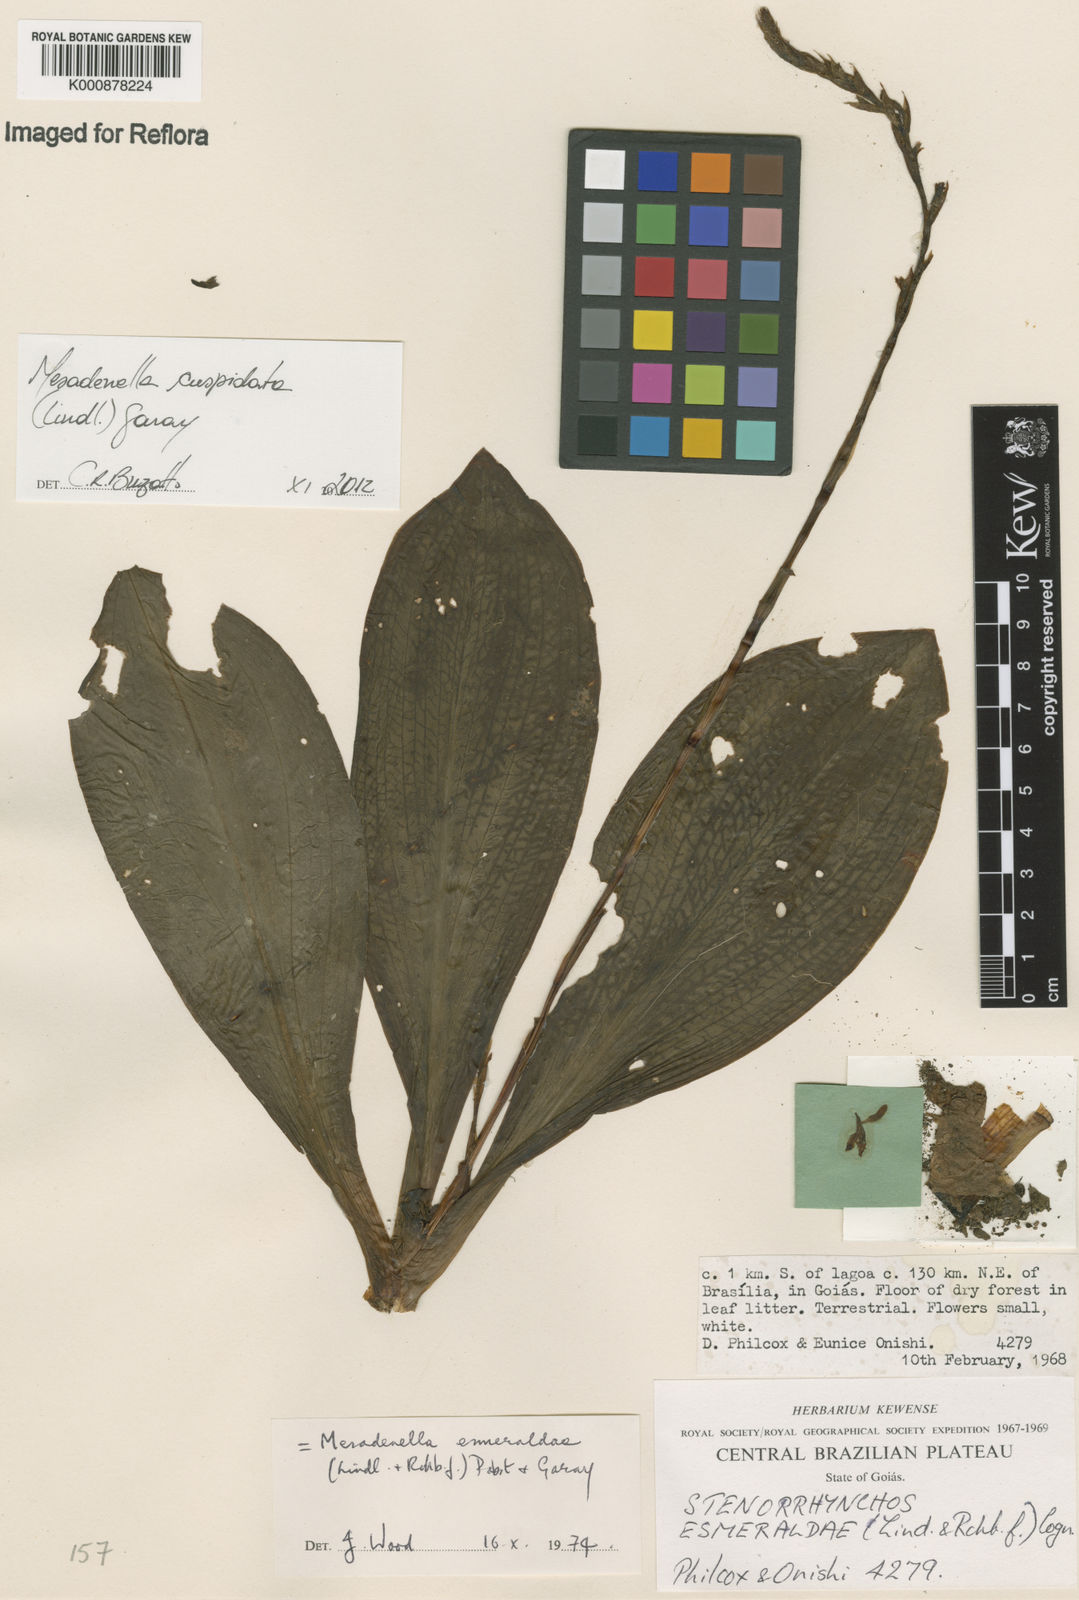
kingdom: Plantae
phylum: Tracheophyta
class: Liliopsida
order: Asparagales
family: Orchidaceae
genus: Mesadenella
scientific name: Mesadenella cuspidata
